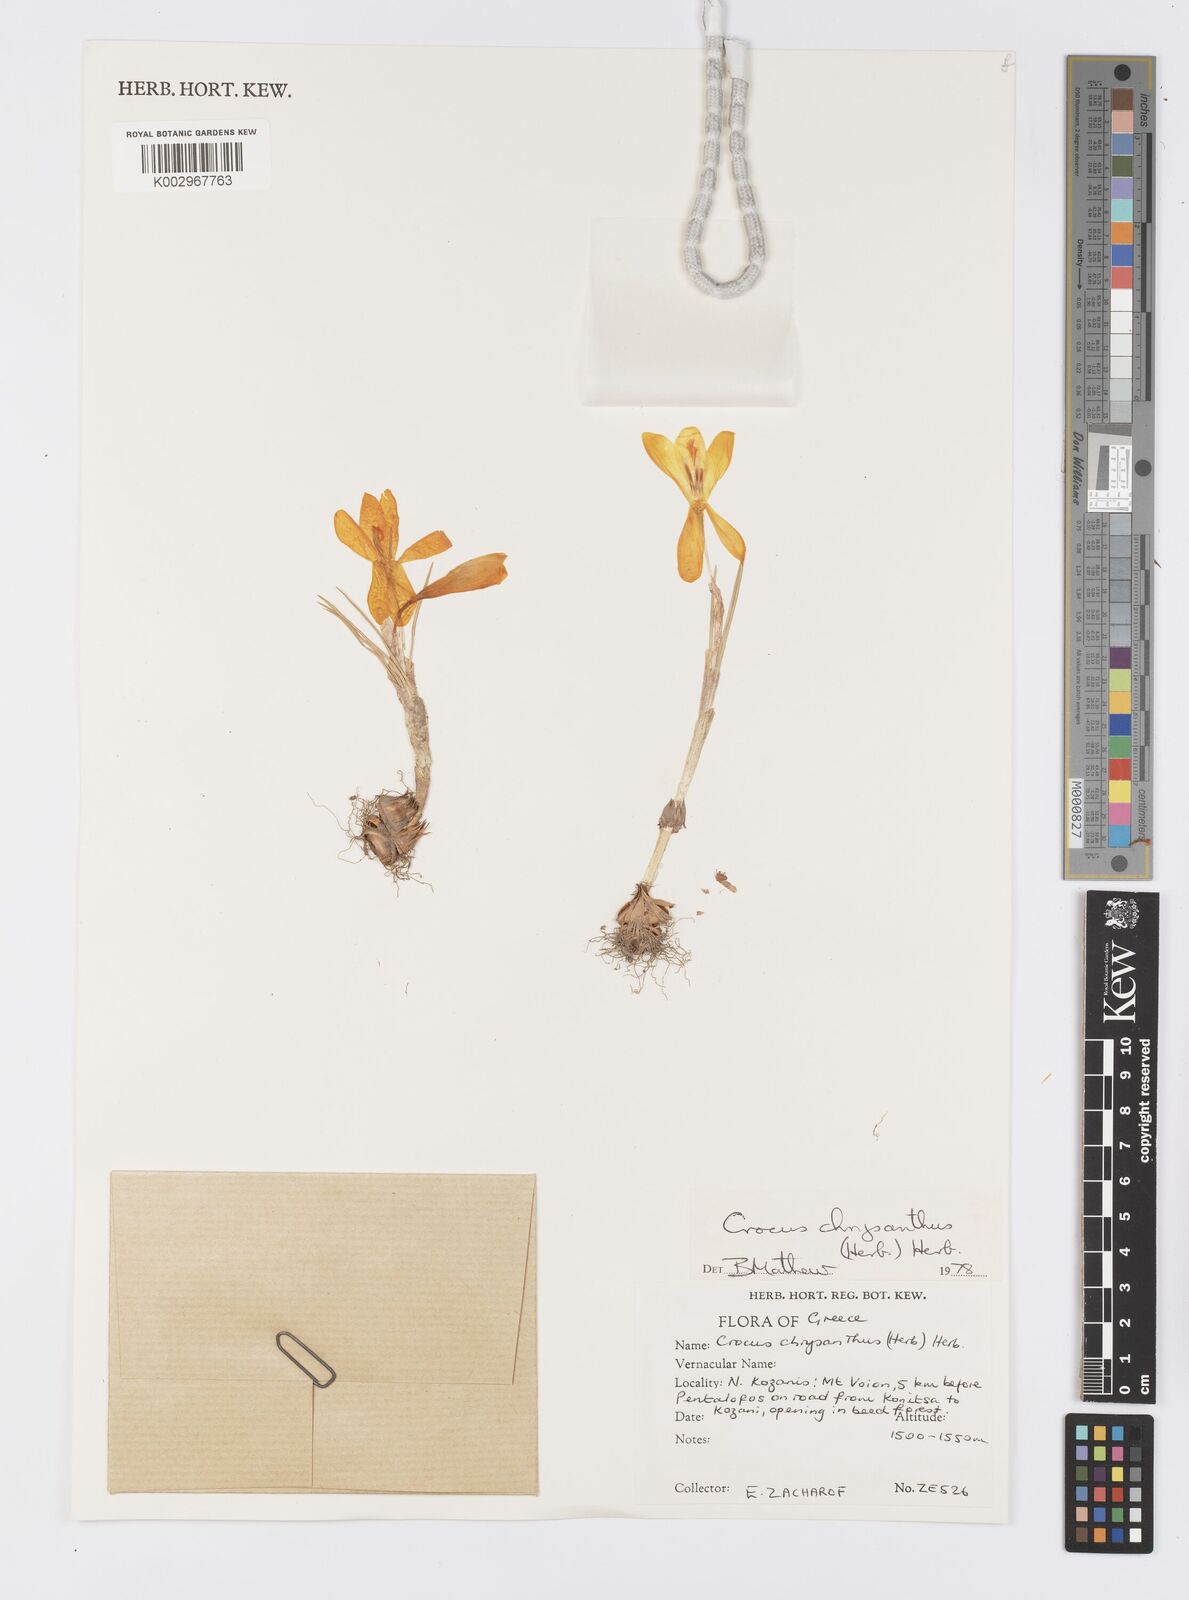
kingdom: Plantae
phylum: Tracheophyta
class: Liliopsida
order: Asparagales
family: Iridaceae
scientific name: Iridaceae
